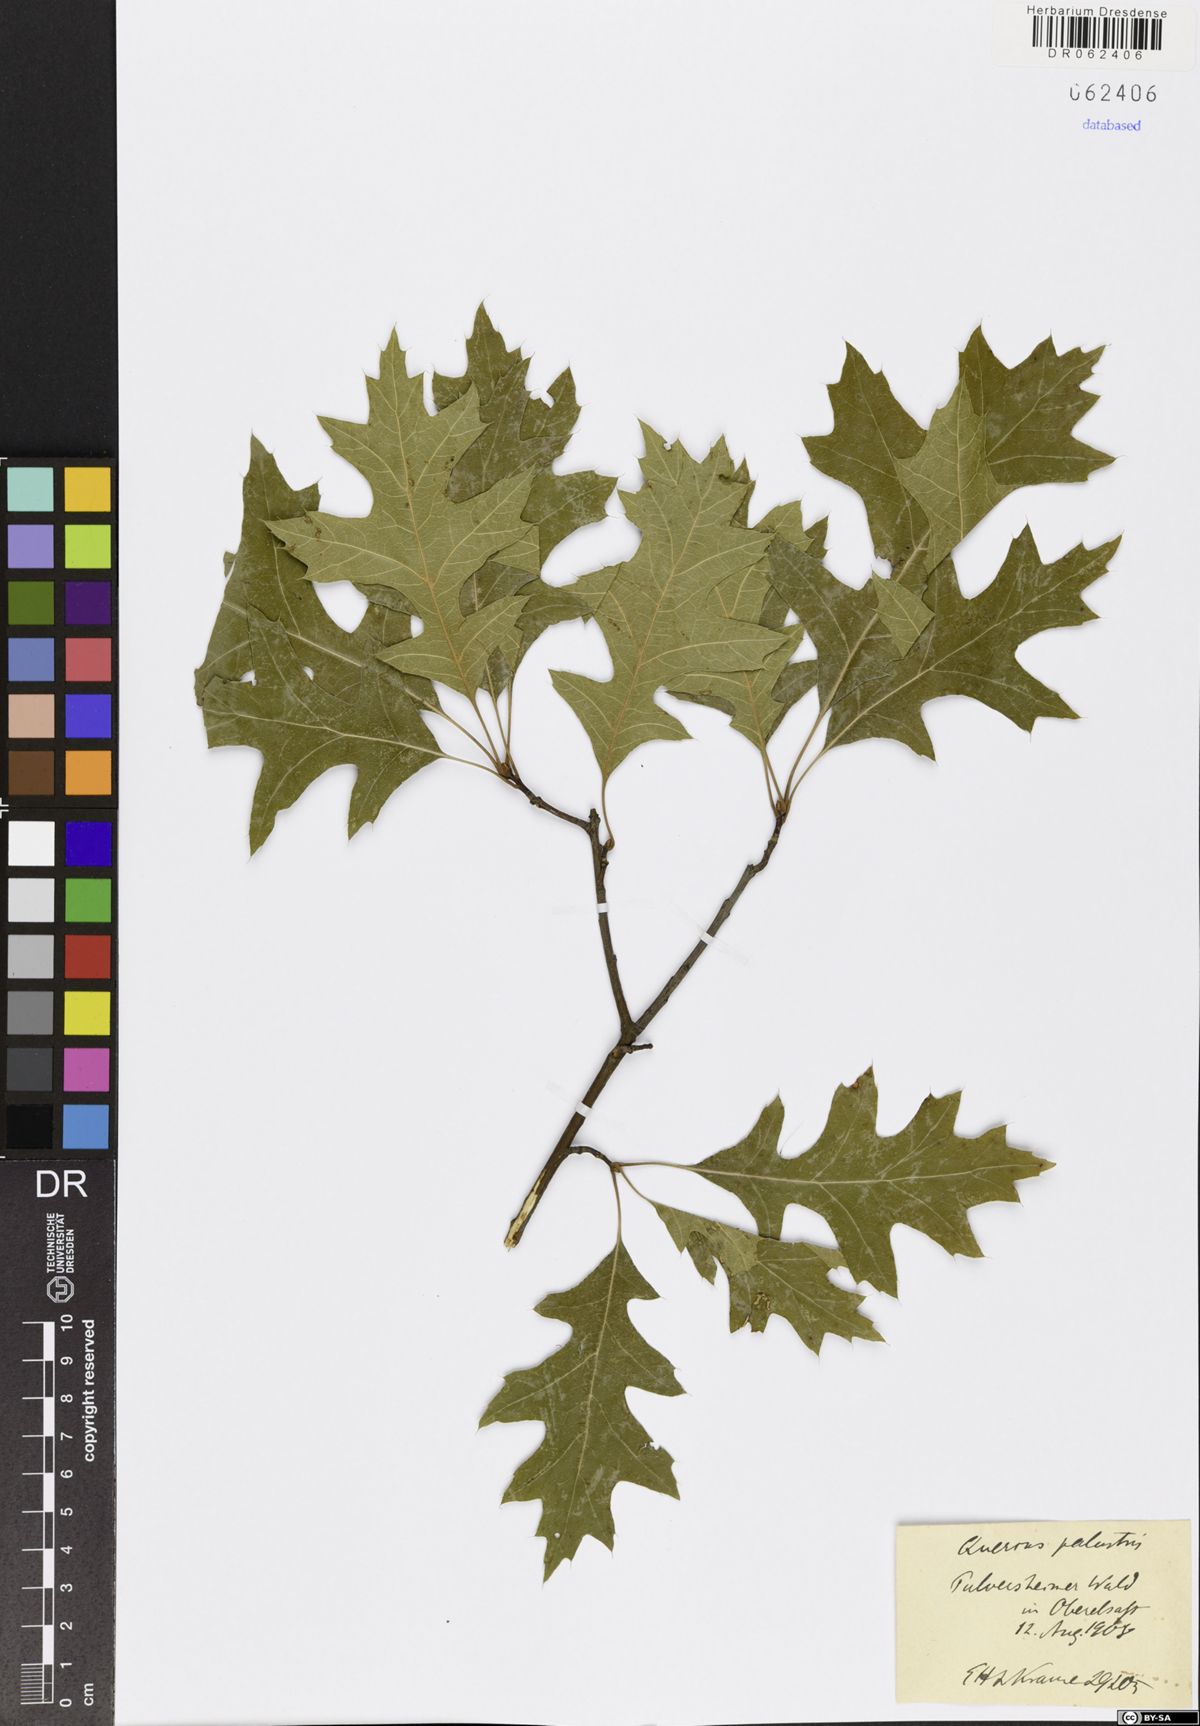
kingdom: Plantae
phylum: Tracheophyta
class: Magnoliopsida
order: Fagales
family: Fagaceae
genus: Quercus
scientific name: Quercus palustris
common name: Pin oak
